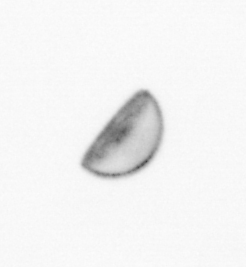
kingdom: Chromista
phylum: Ochrophyta
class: Bacillariophyceae
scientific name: Bacillariophyceae
